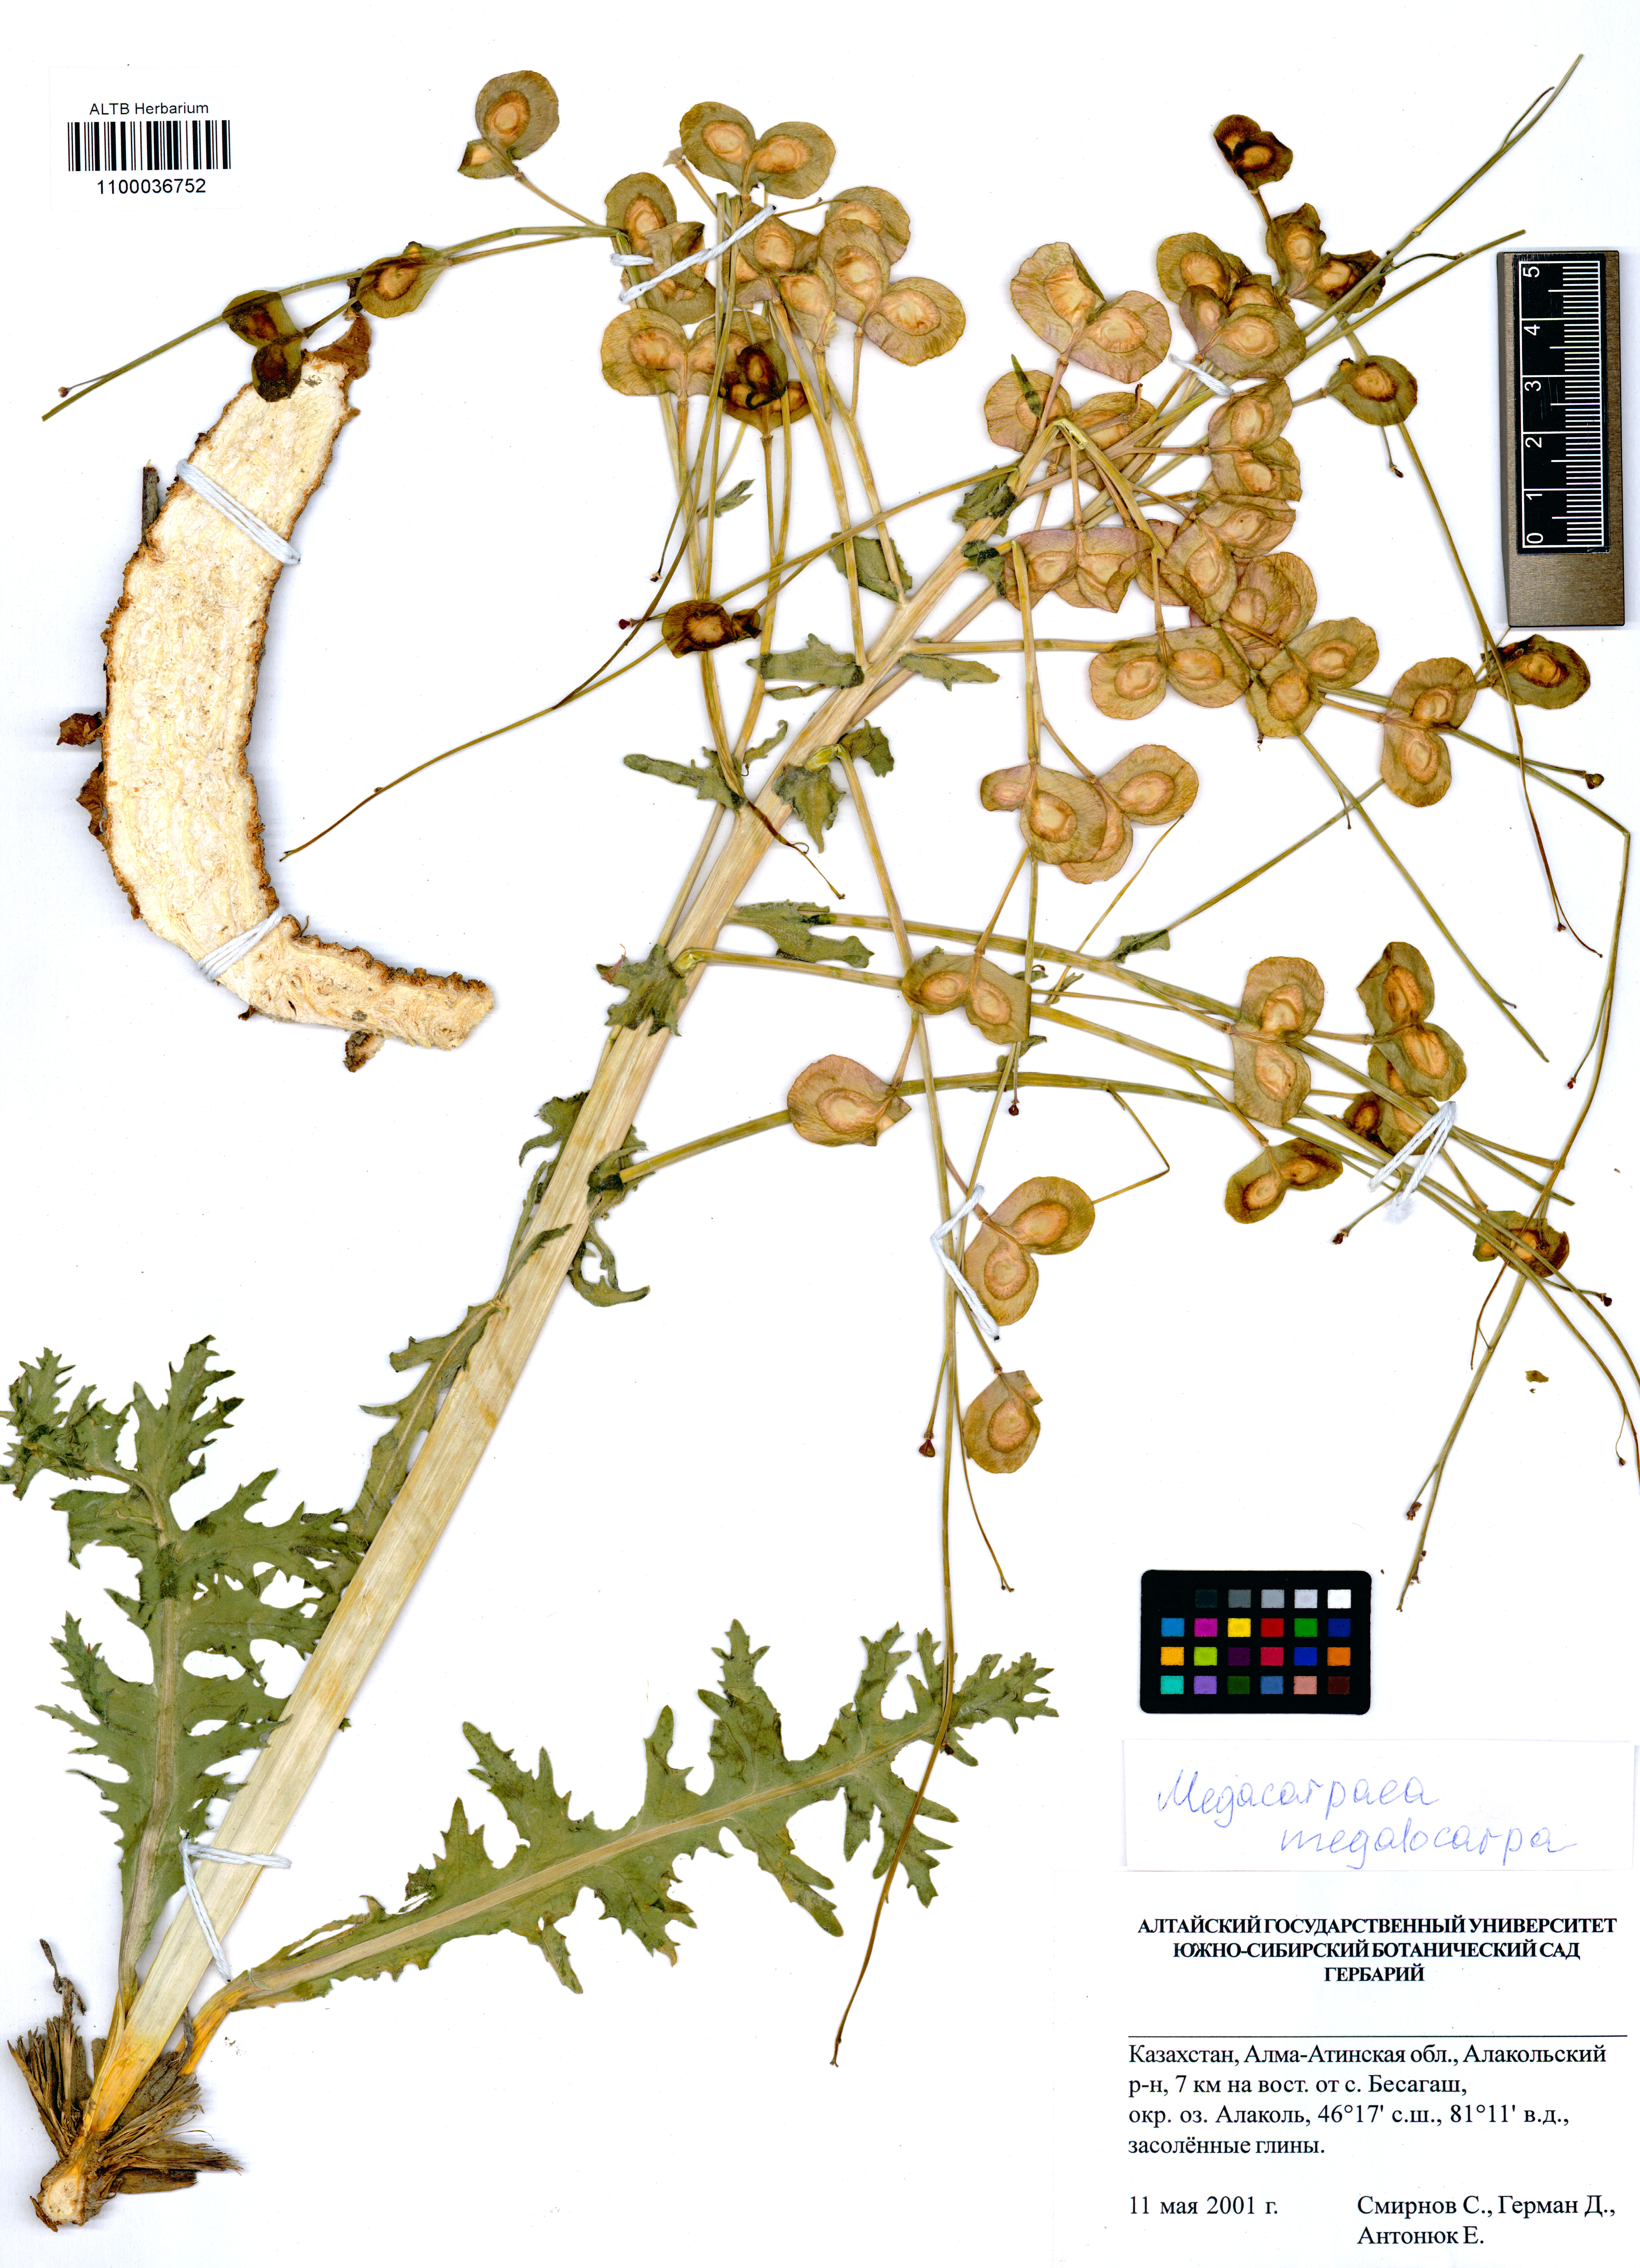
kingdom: Plantae
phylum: Tracheophyta
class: Magnoliopsida
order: Brassicales
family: Brassicaceae
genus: Megacarpaea
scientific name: Megacarpaea megalocarpa
